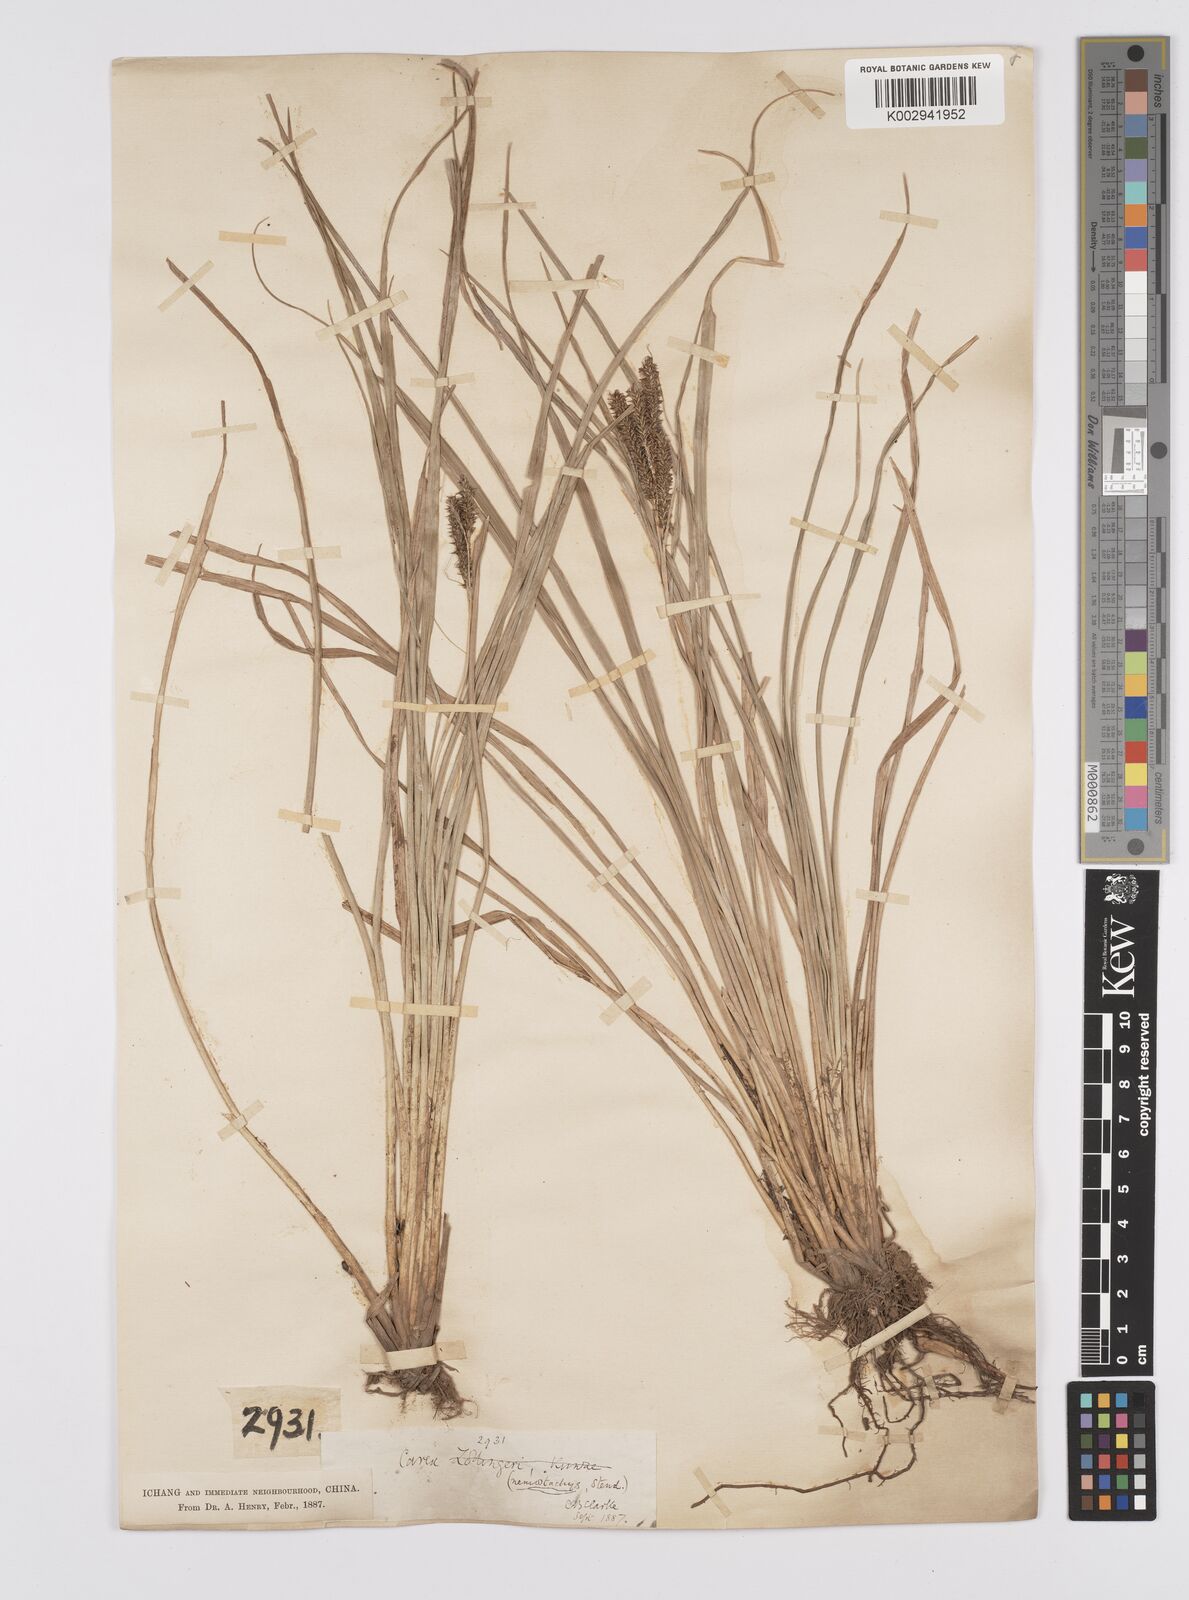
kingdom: Plantae
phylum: Tracheophyta
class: Liliopsida
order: Poales
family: Cyperaceae
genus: Carex
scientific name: Carex nemostachys
